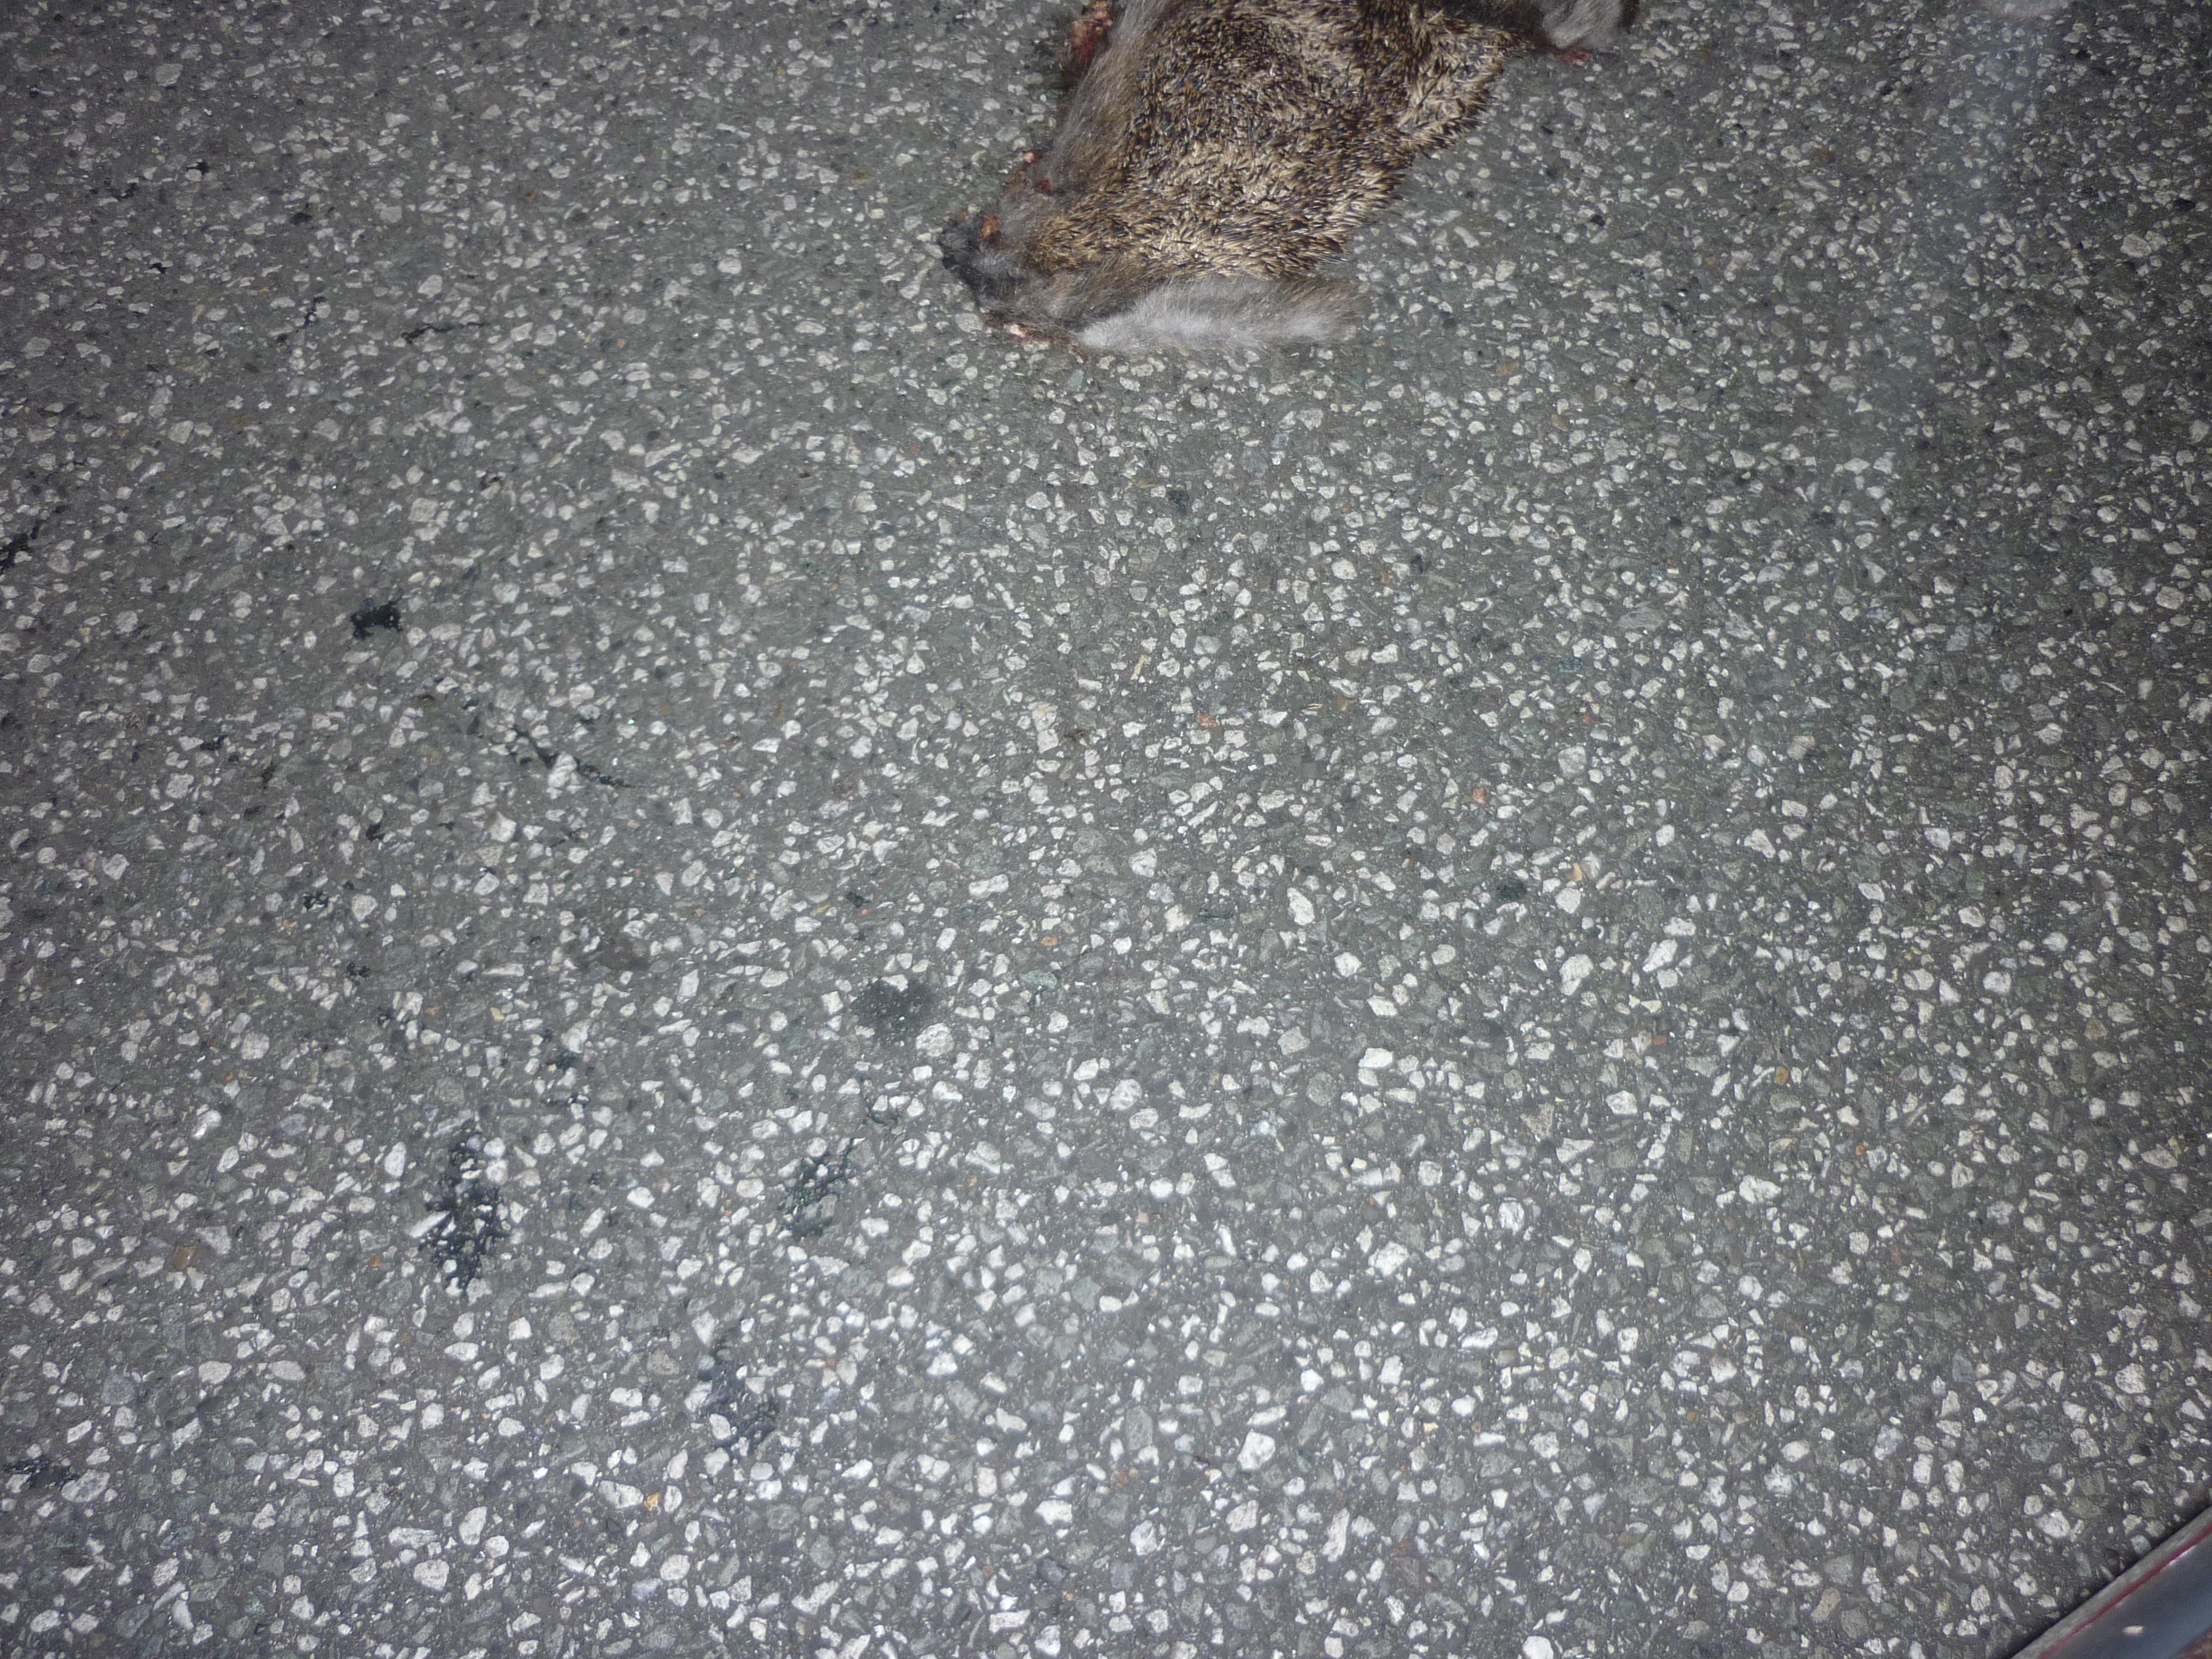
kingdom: Animalia
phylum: Chordata
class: Mammalia
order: Erinaceomorpha
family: Erinaceidae
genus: Erinaceus
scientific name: Erinaceus
